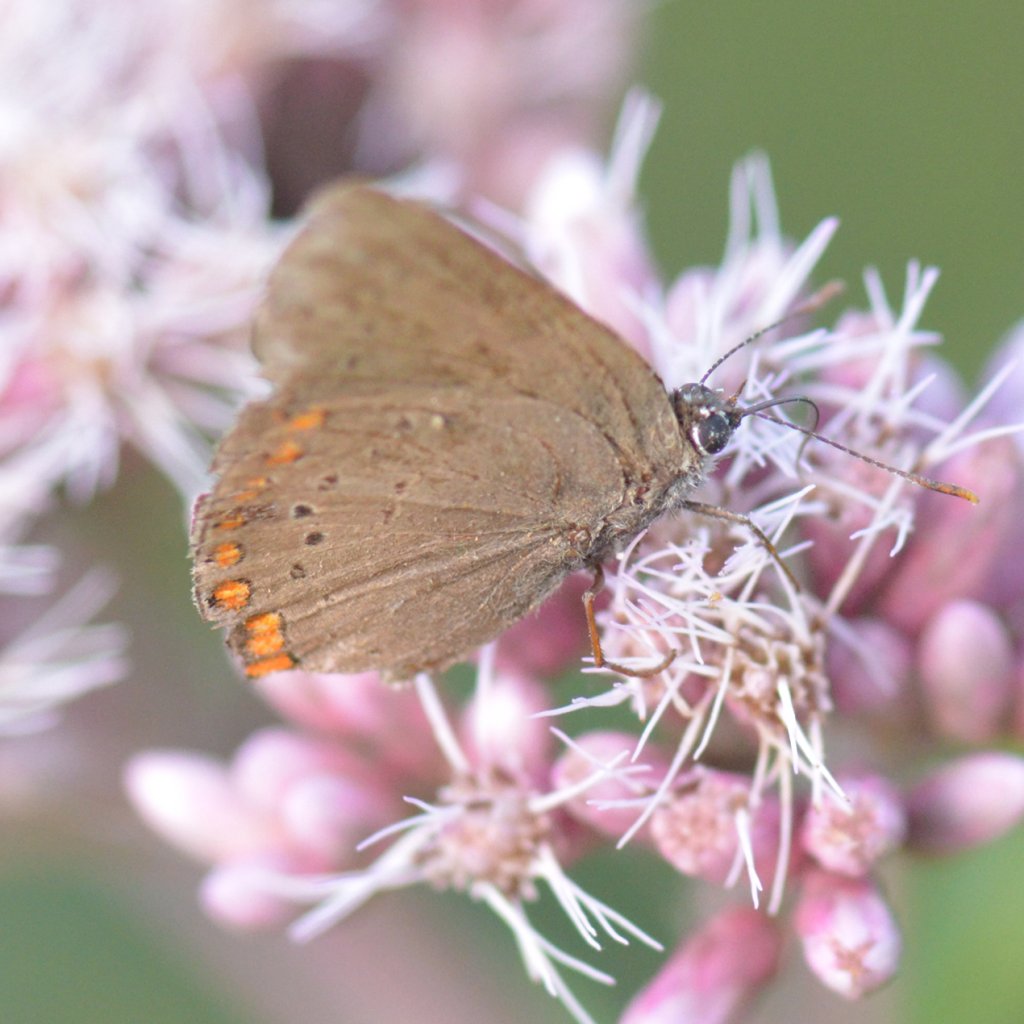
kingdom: Animalia
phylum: Arthropoda
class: Insecta
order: Lepidoptera
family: Lycaenidae
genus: Harkenclenus
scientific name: Harkenclenus titus
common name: Coral Hairstreak
